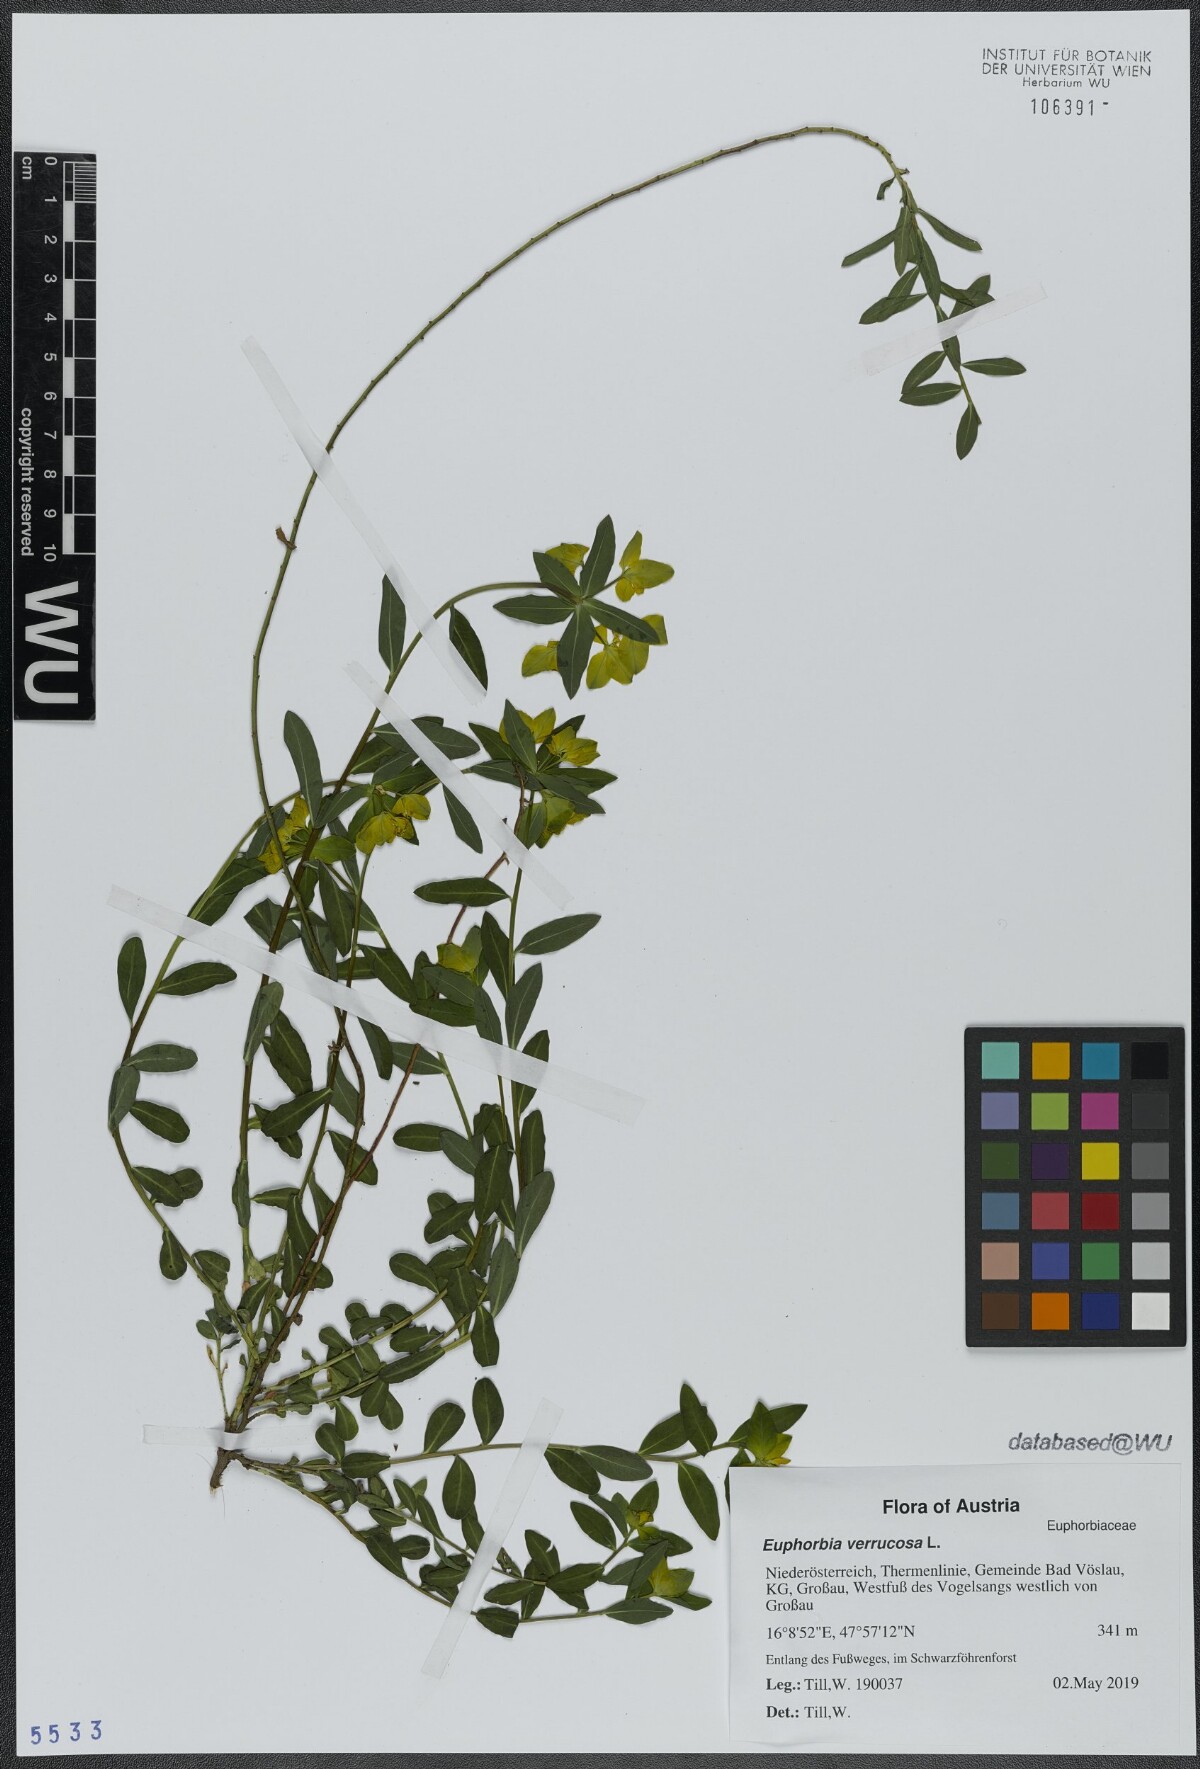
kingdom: Plantae
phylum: Tracheophyta
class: Magnoliopsida
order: Malpighiales
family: Euphorbiaceae
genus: Euphorbia
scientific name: Euphorbia verrucosa
